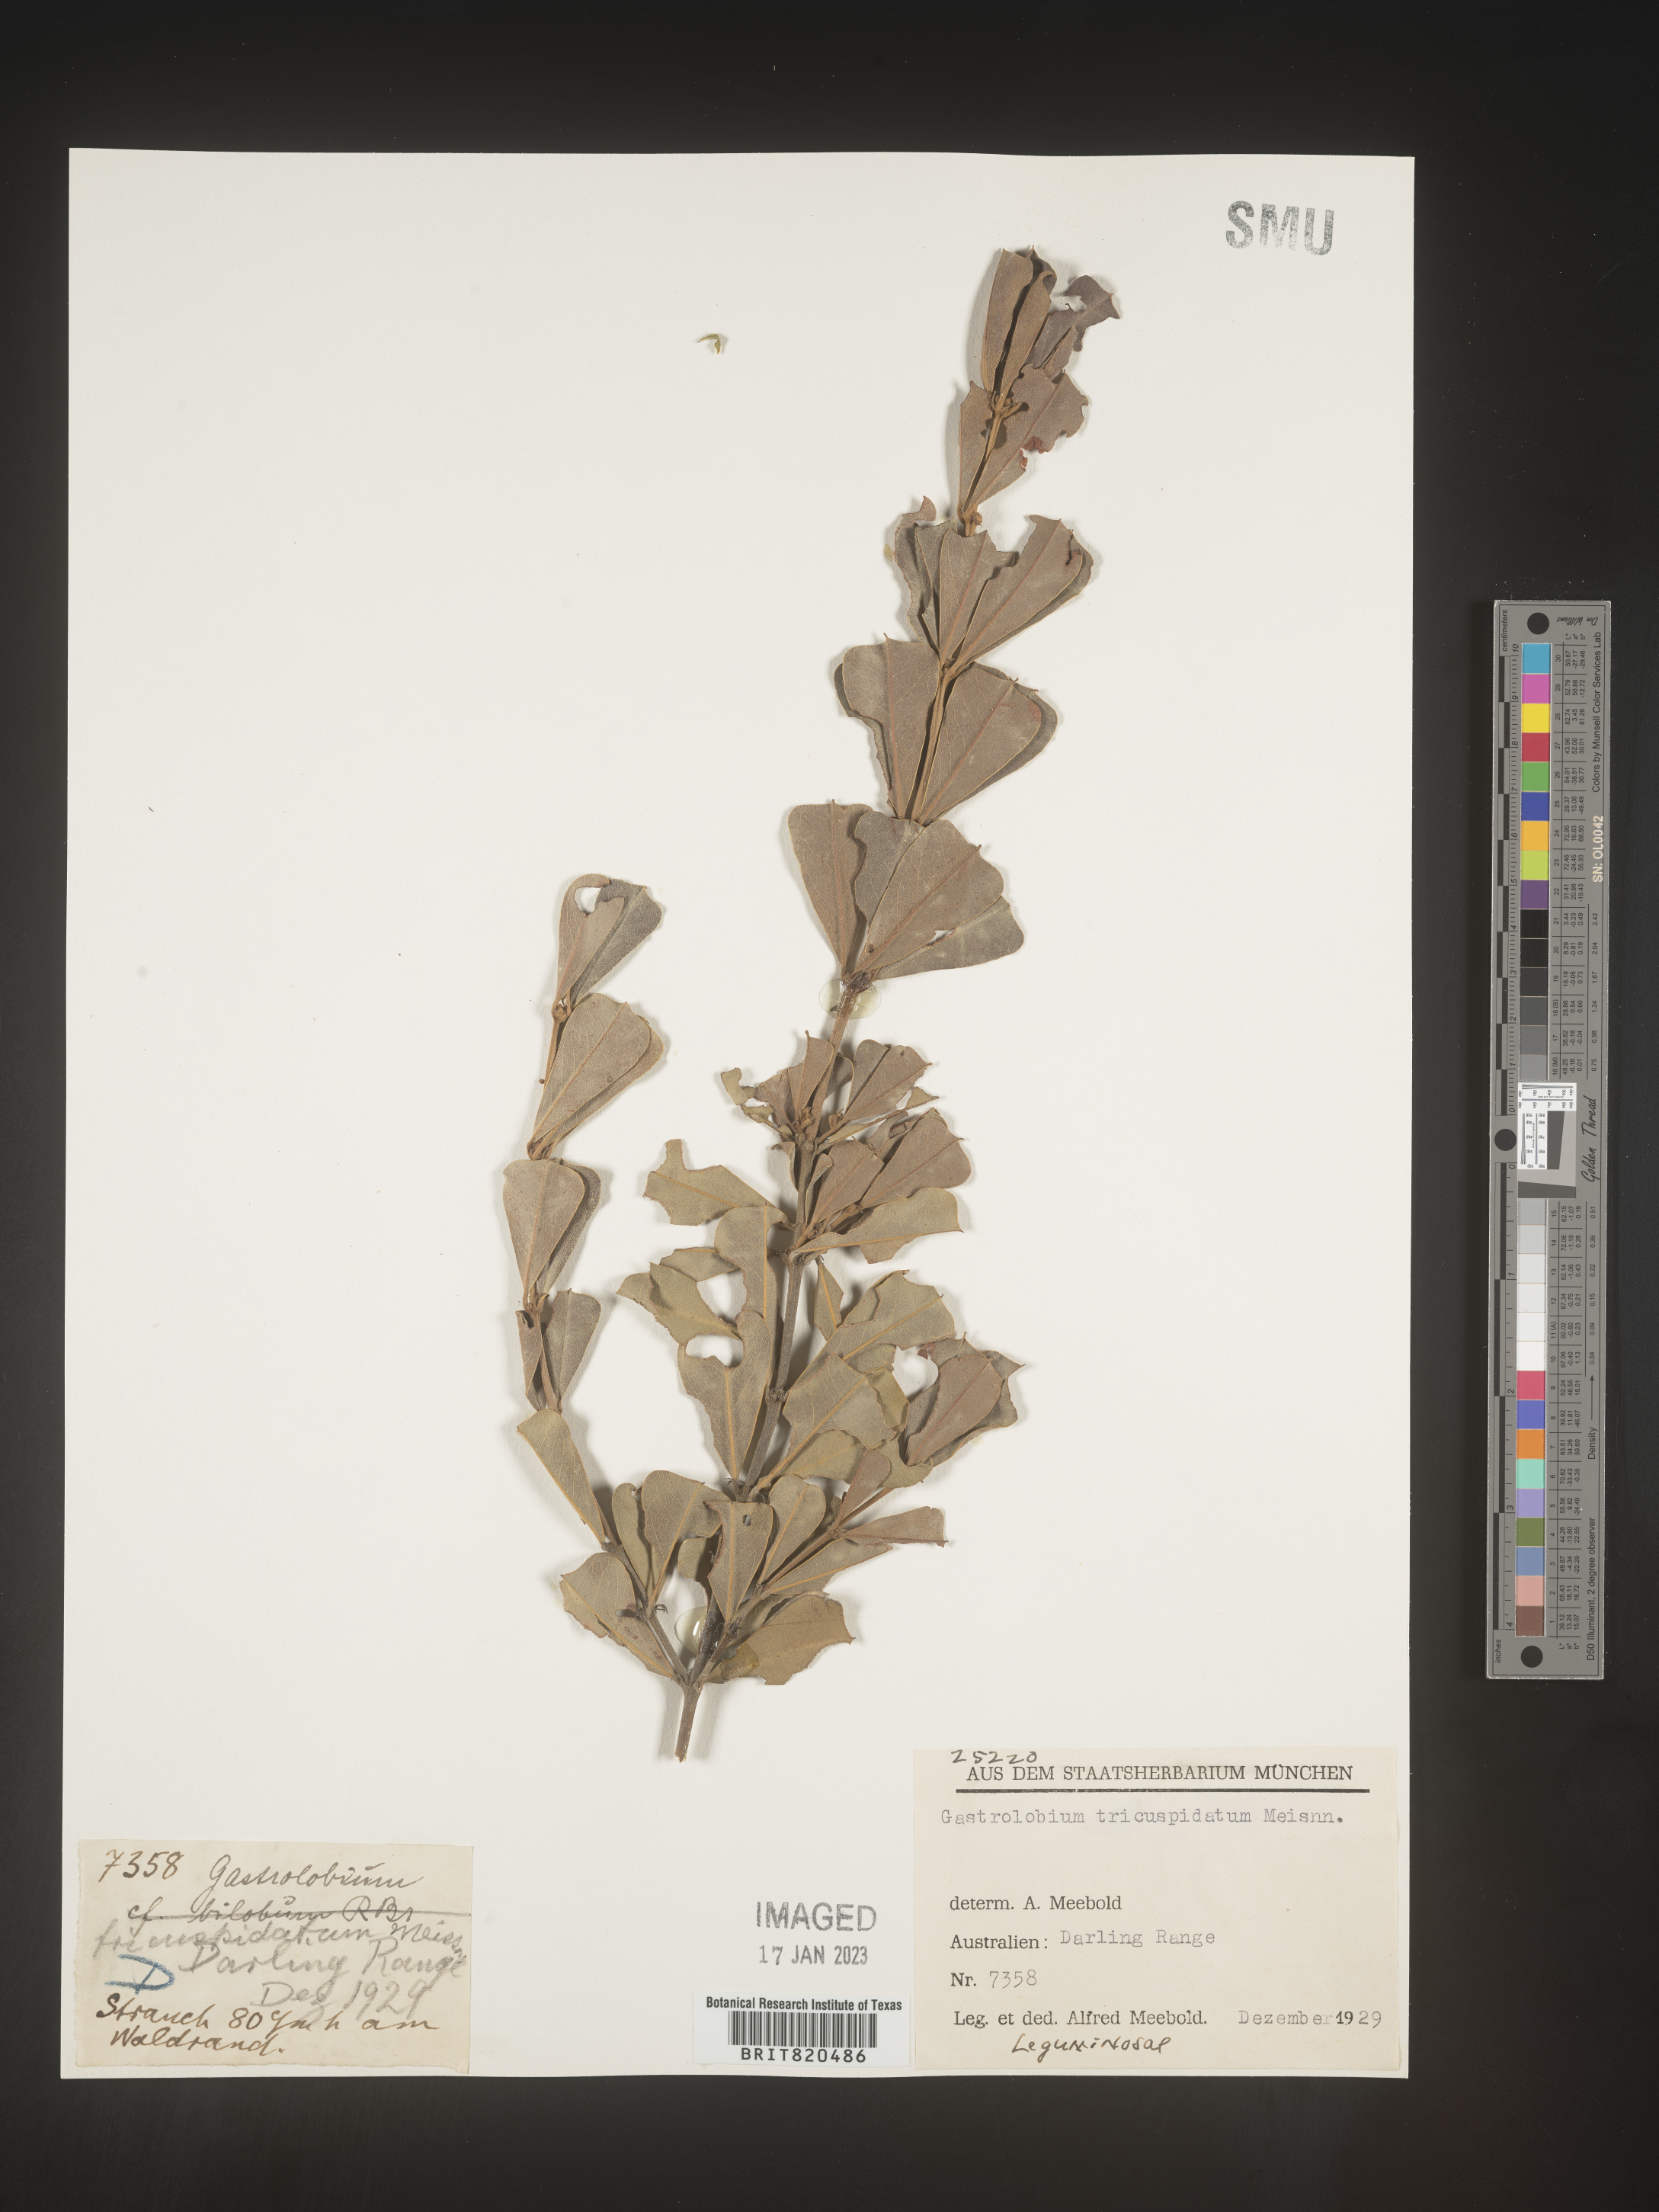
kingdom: Plantae
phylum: Tracheophyta
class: Magnoliopsida
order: Fabales
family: Fabaceae
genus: Gastrolobium
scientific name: Gastrolobium
